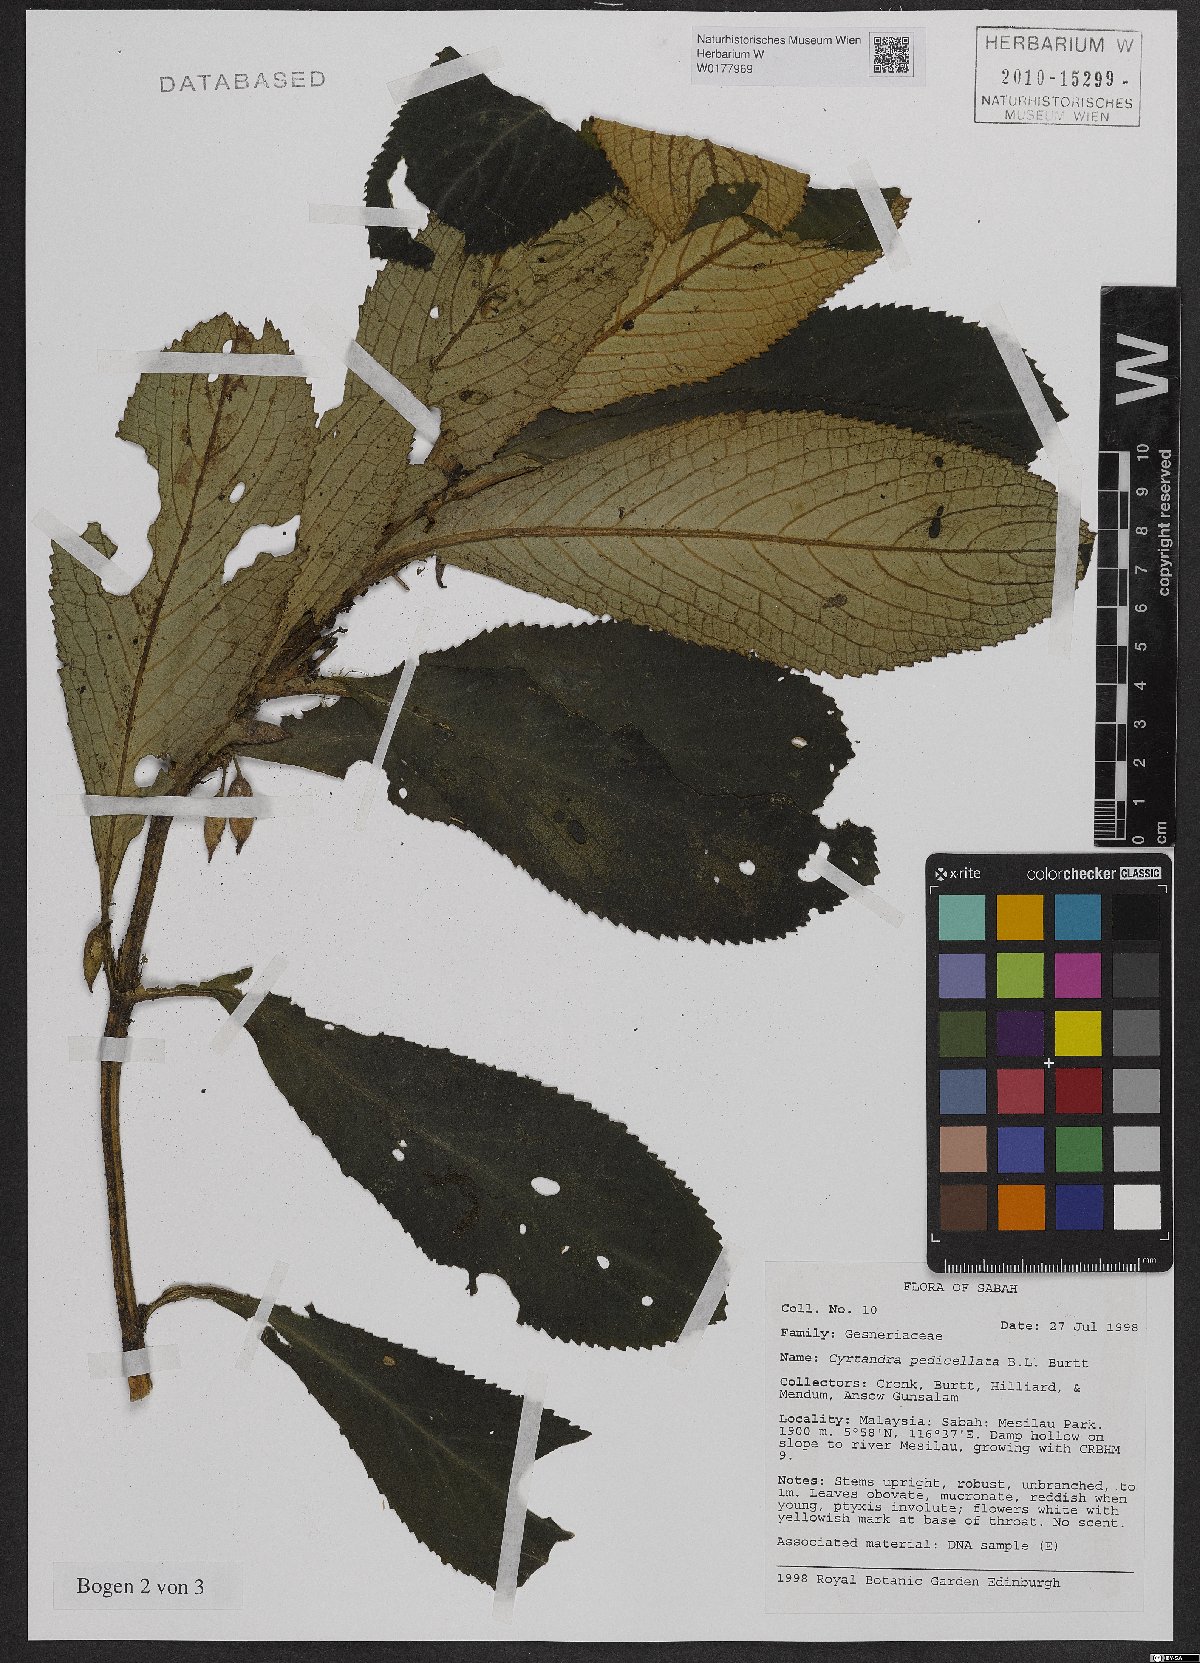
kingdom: Plantae
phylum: Tracheophyta
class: Magnoliopsida
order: Lamiales
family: Gesneriaceae
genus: Cyrtandra
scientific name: Cyrtandra pedicellata
